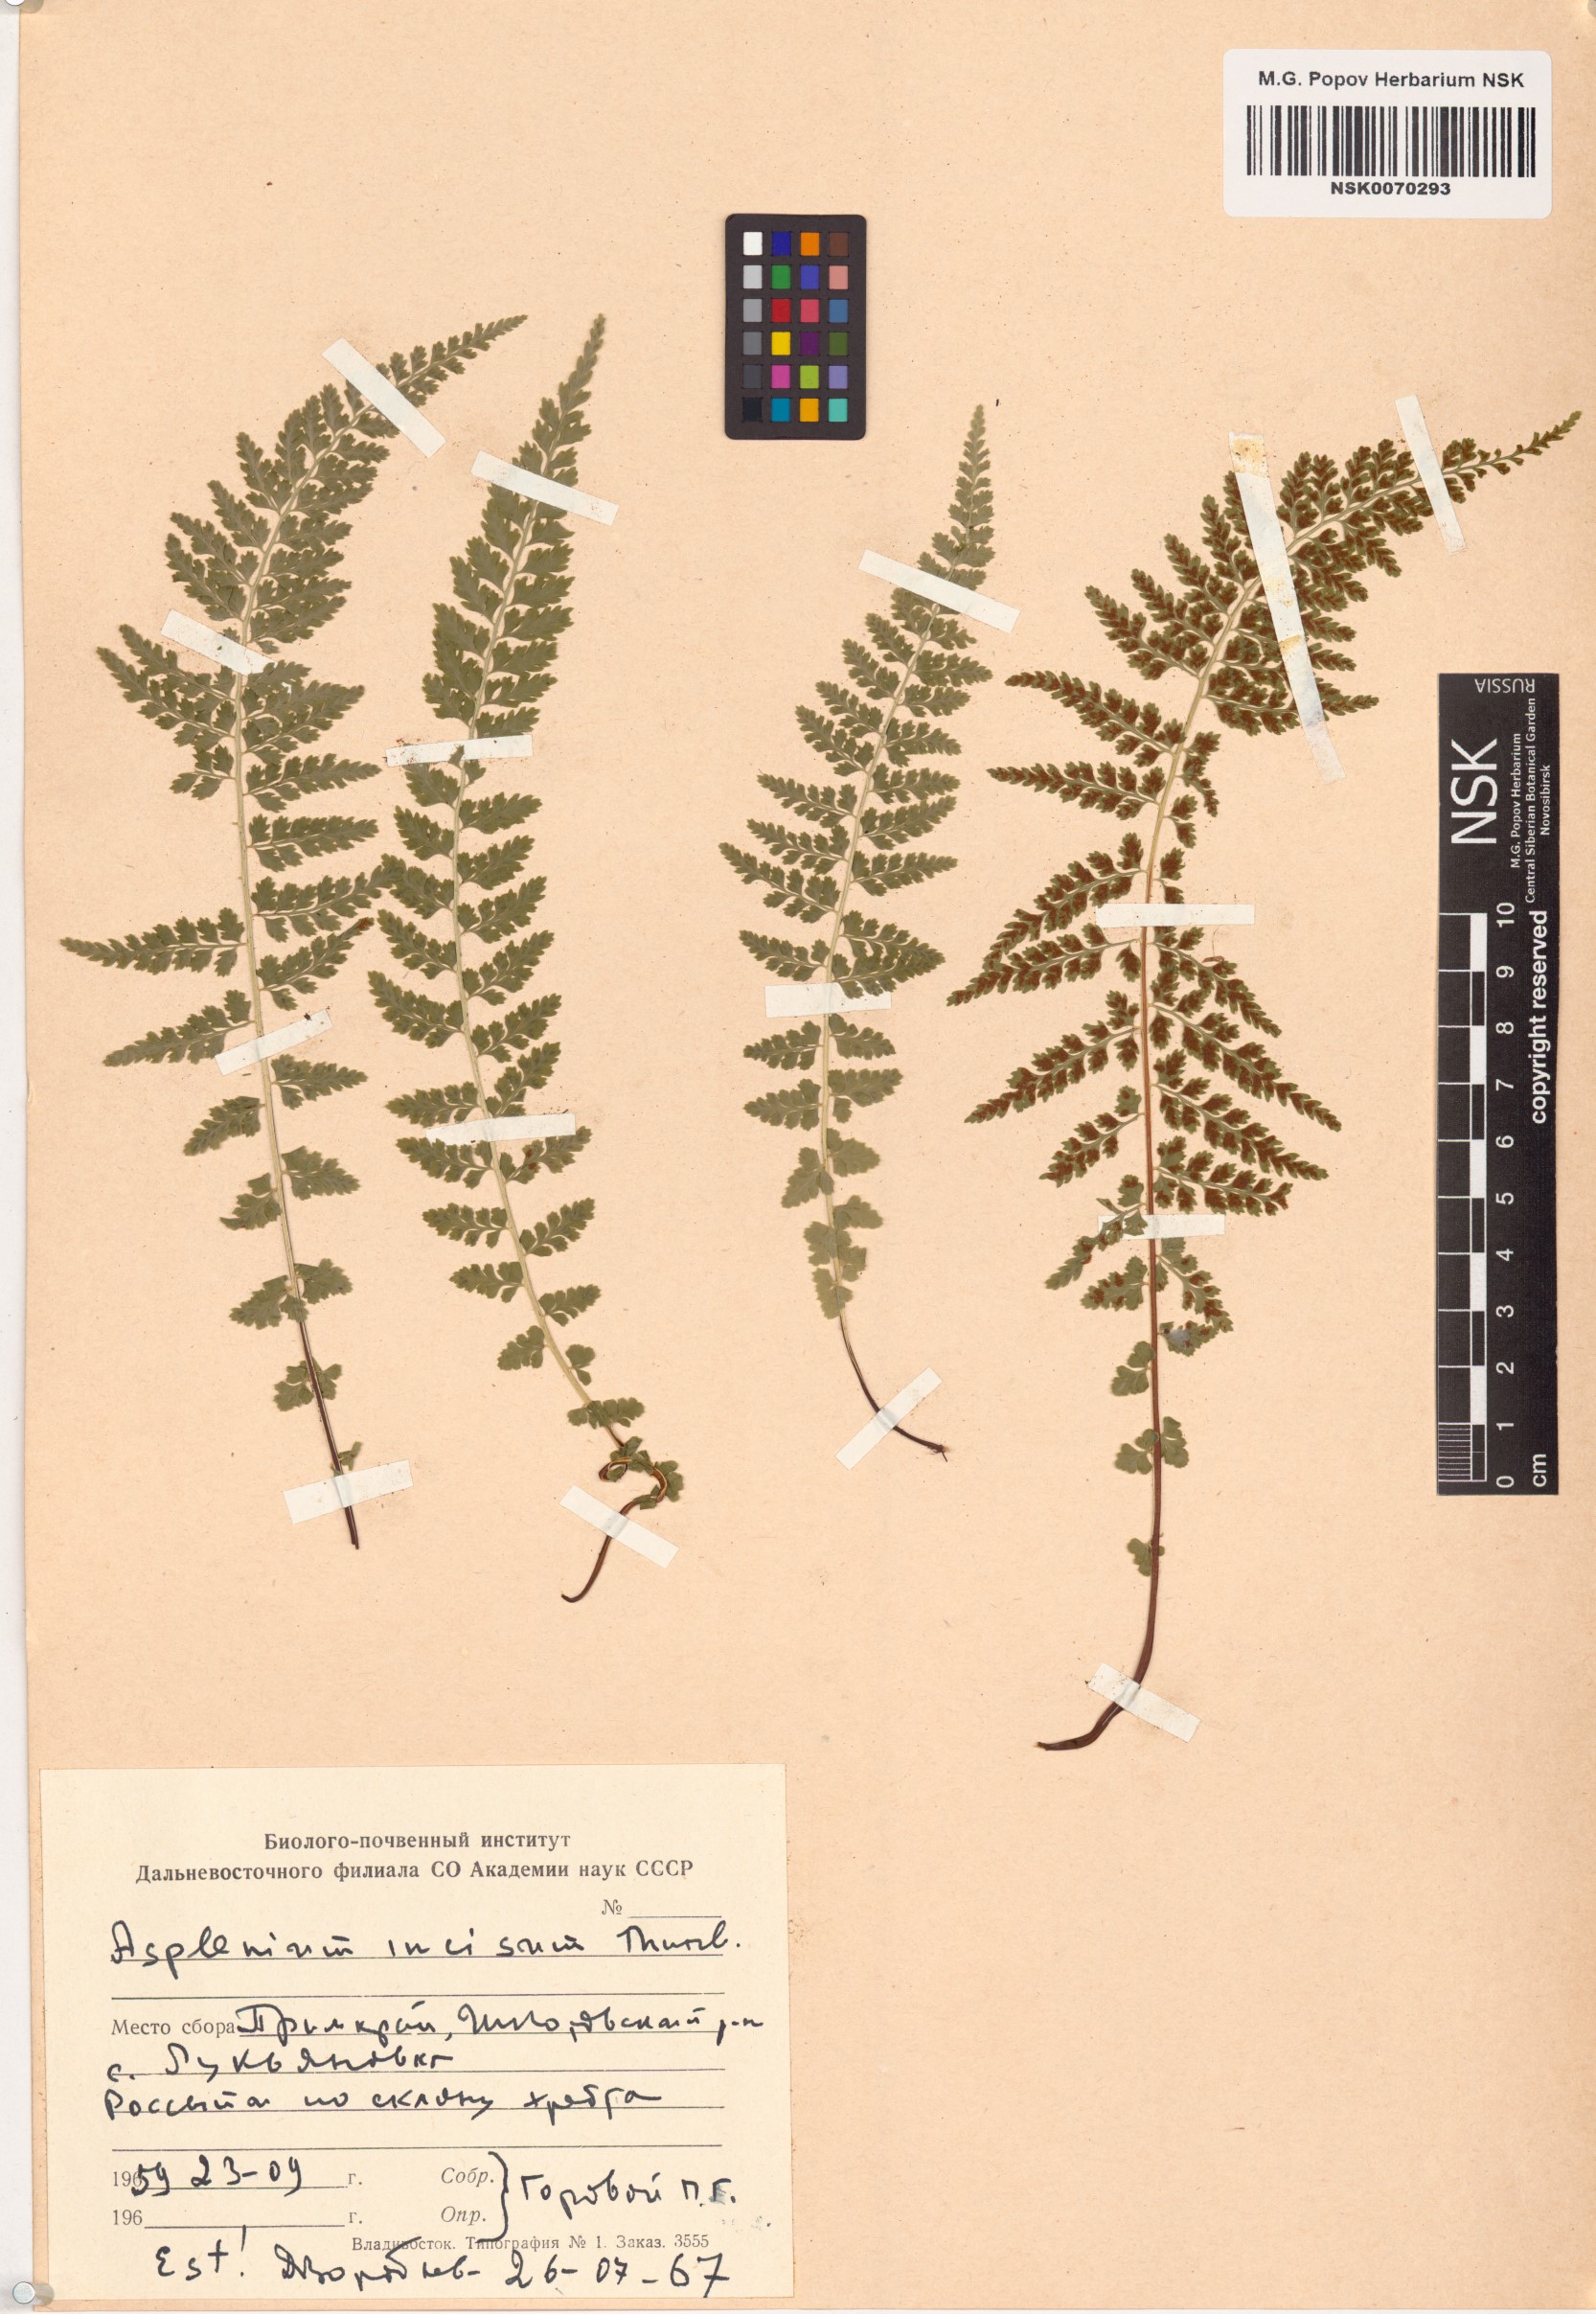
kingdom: Plantae
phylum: Tracheophyta
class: Polypodiopsida
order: Polypodiales
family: Aspleniaceae
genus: Asplenium
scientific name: Asplenium incisum
